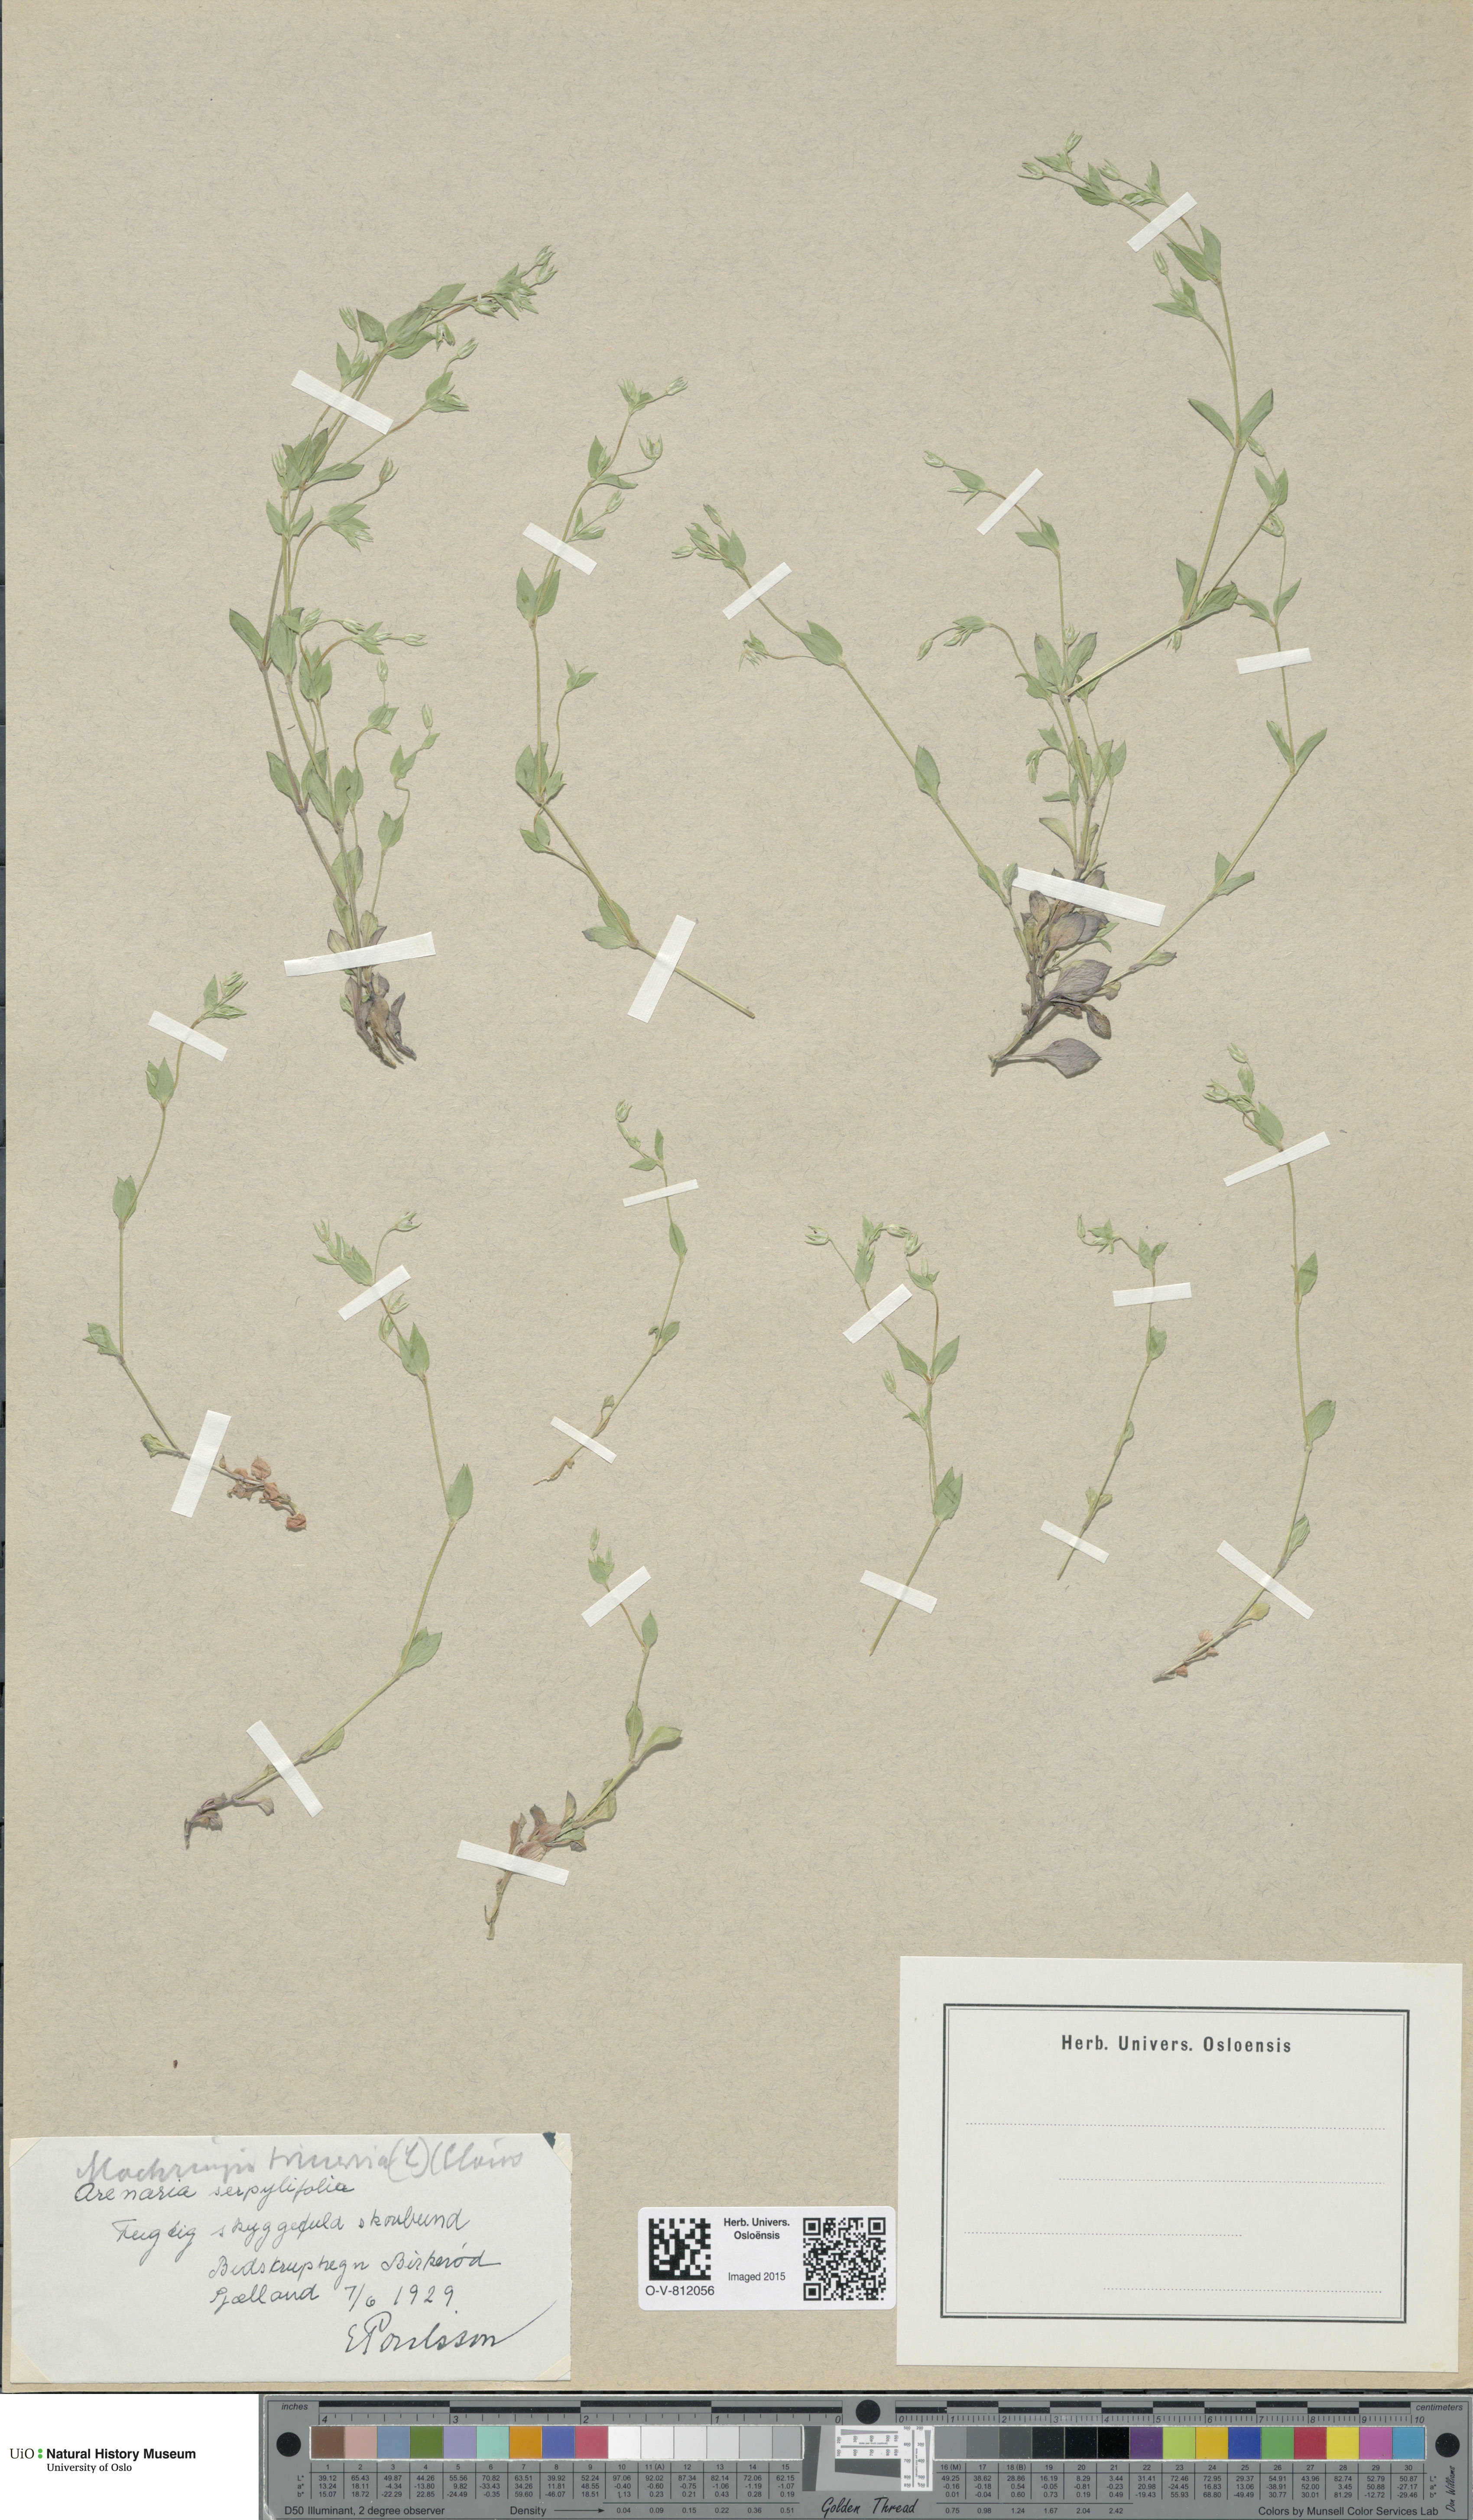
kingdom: Plantae
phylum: Tracheophyta
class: Magnoliopsida
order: Caryophyllales
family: Caryophyllaceae
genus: Moehringia
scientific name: Moehringia trinervia
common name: Three-nerved sandwort
